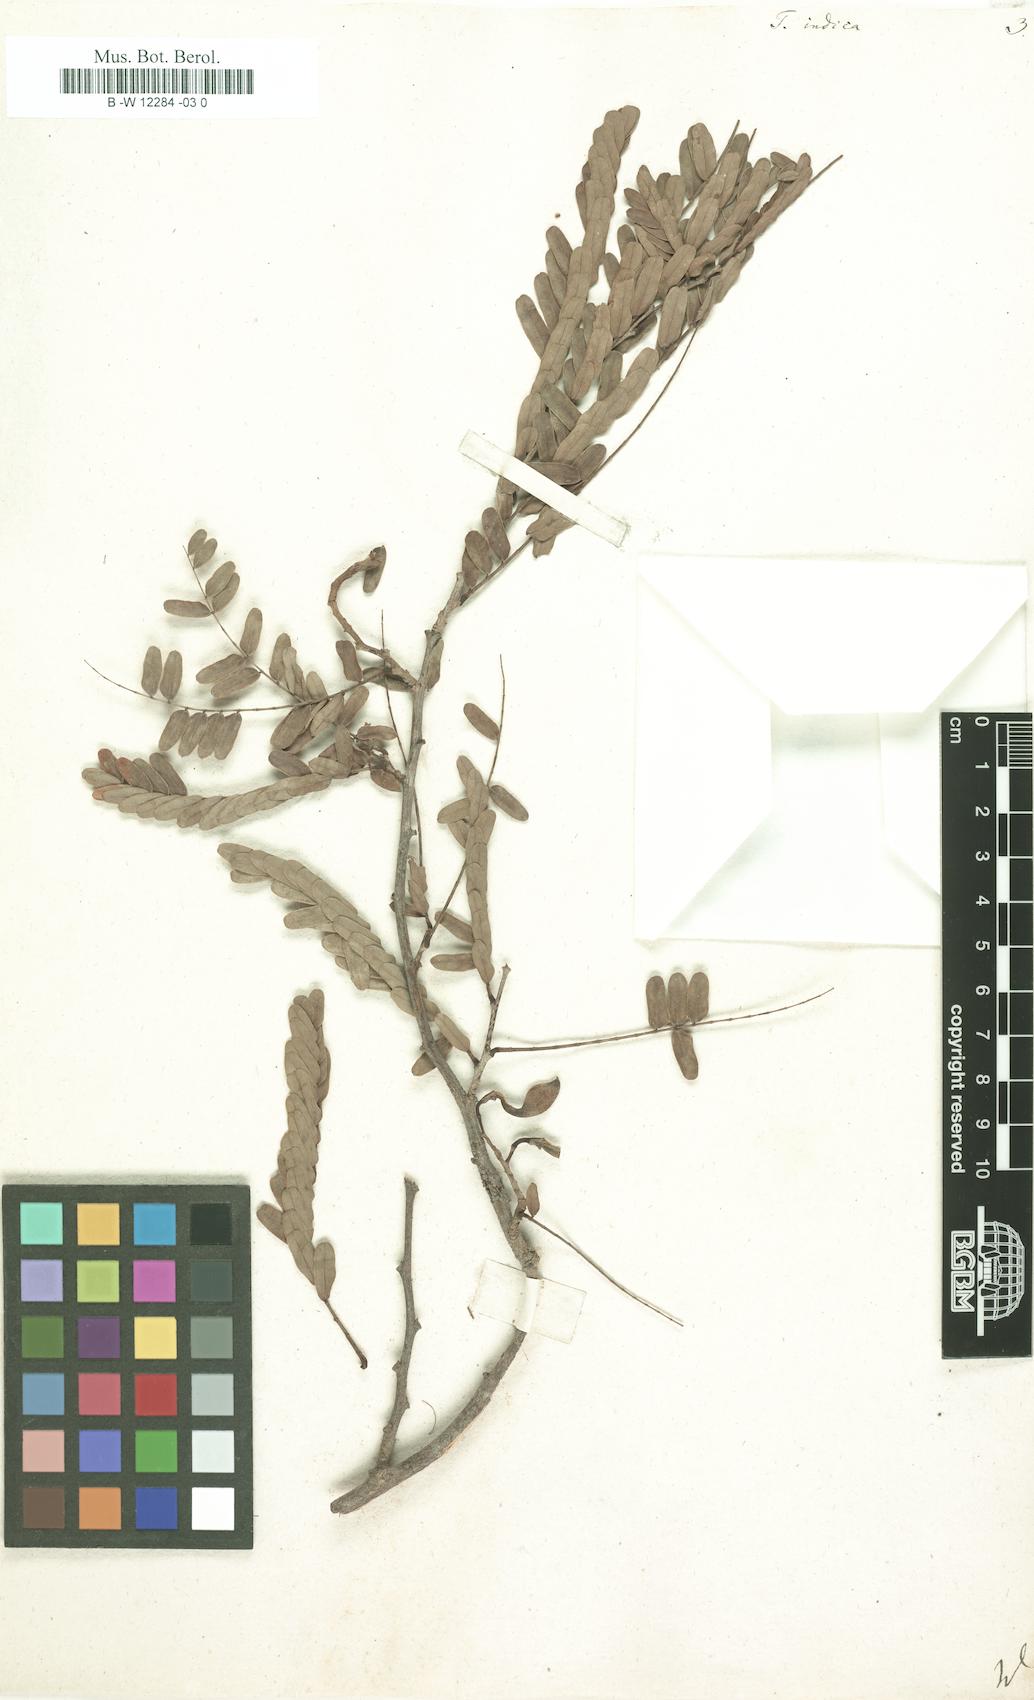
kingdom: Plantae
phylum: Tracheophyta
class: Magnoliopsida
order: Fabales
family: Fabaceae
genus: Tamarindus
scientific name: Tamarindus indica
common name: Tamarind
